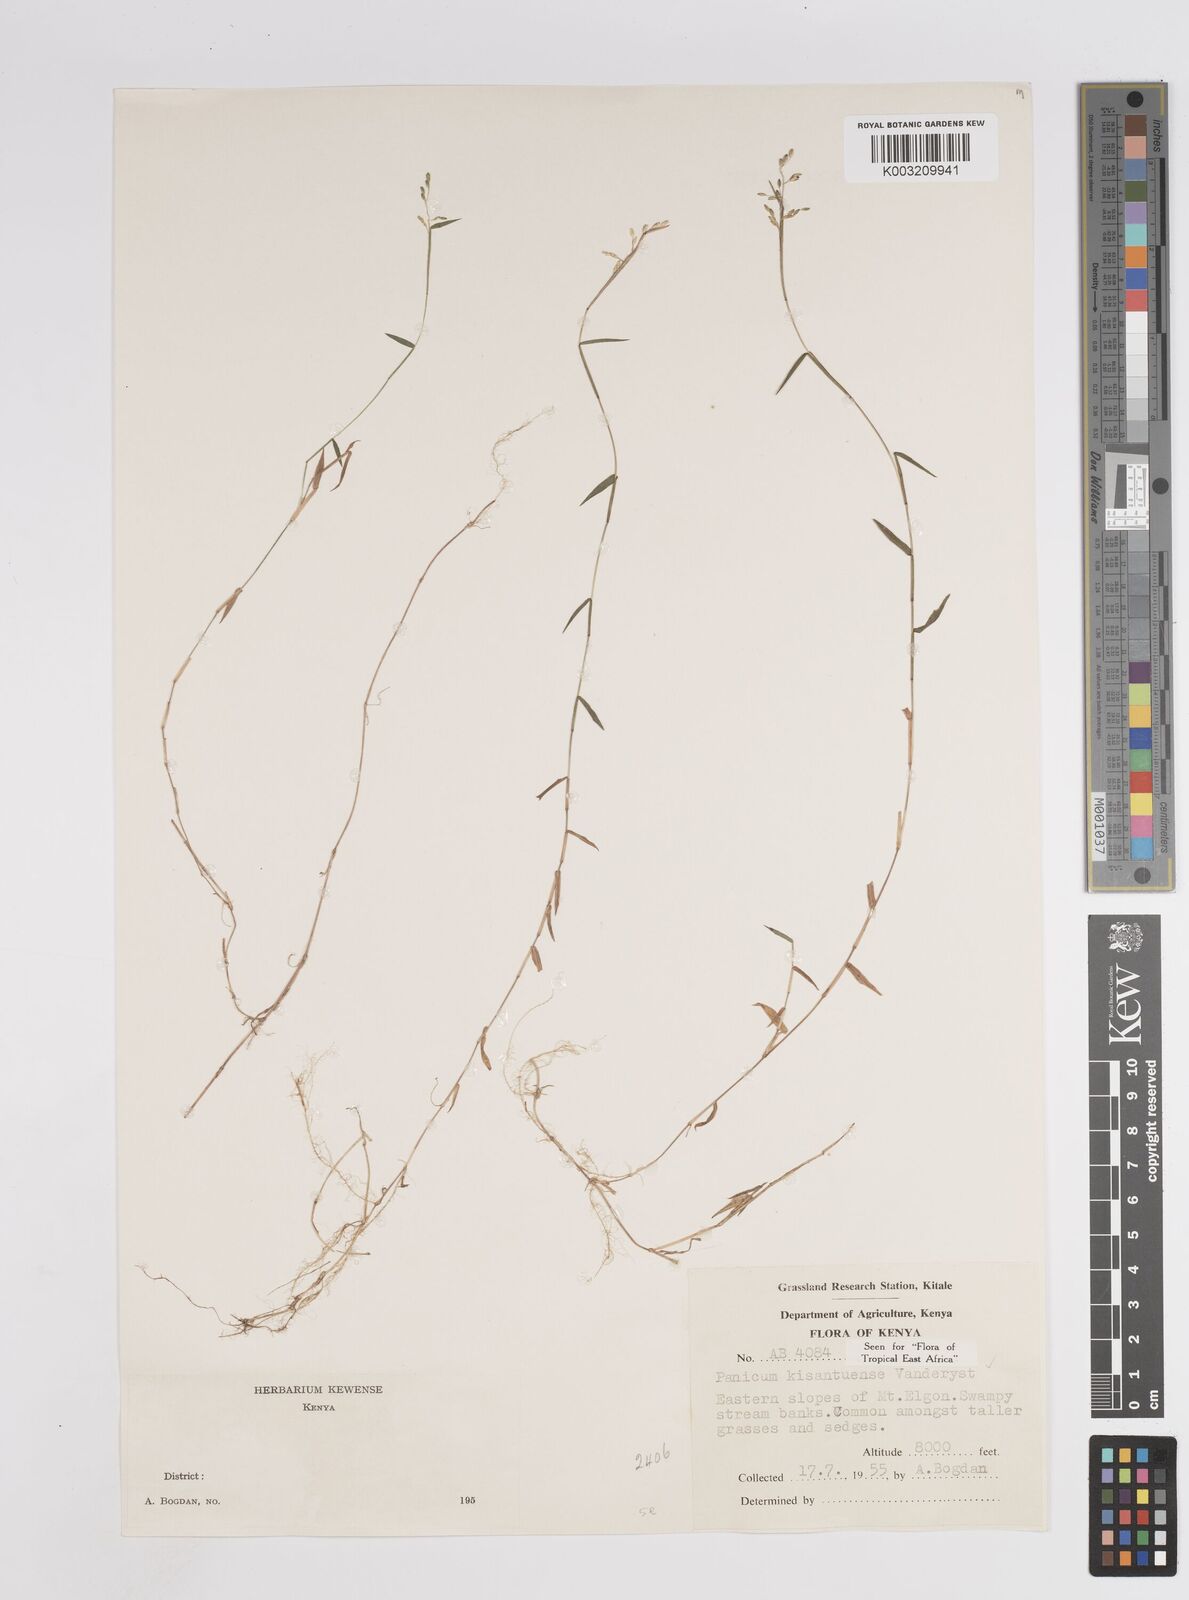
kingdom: Plantae
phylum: Tracheophyta
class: Liliopsida
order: Poales
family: Poaceae
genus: Adenochloa
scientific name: Adenochloa hymeniochila
